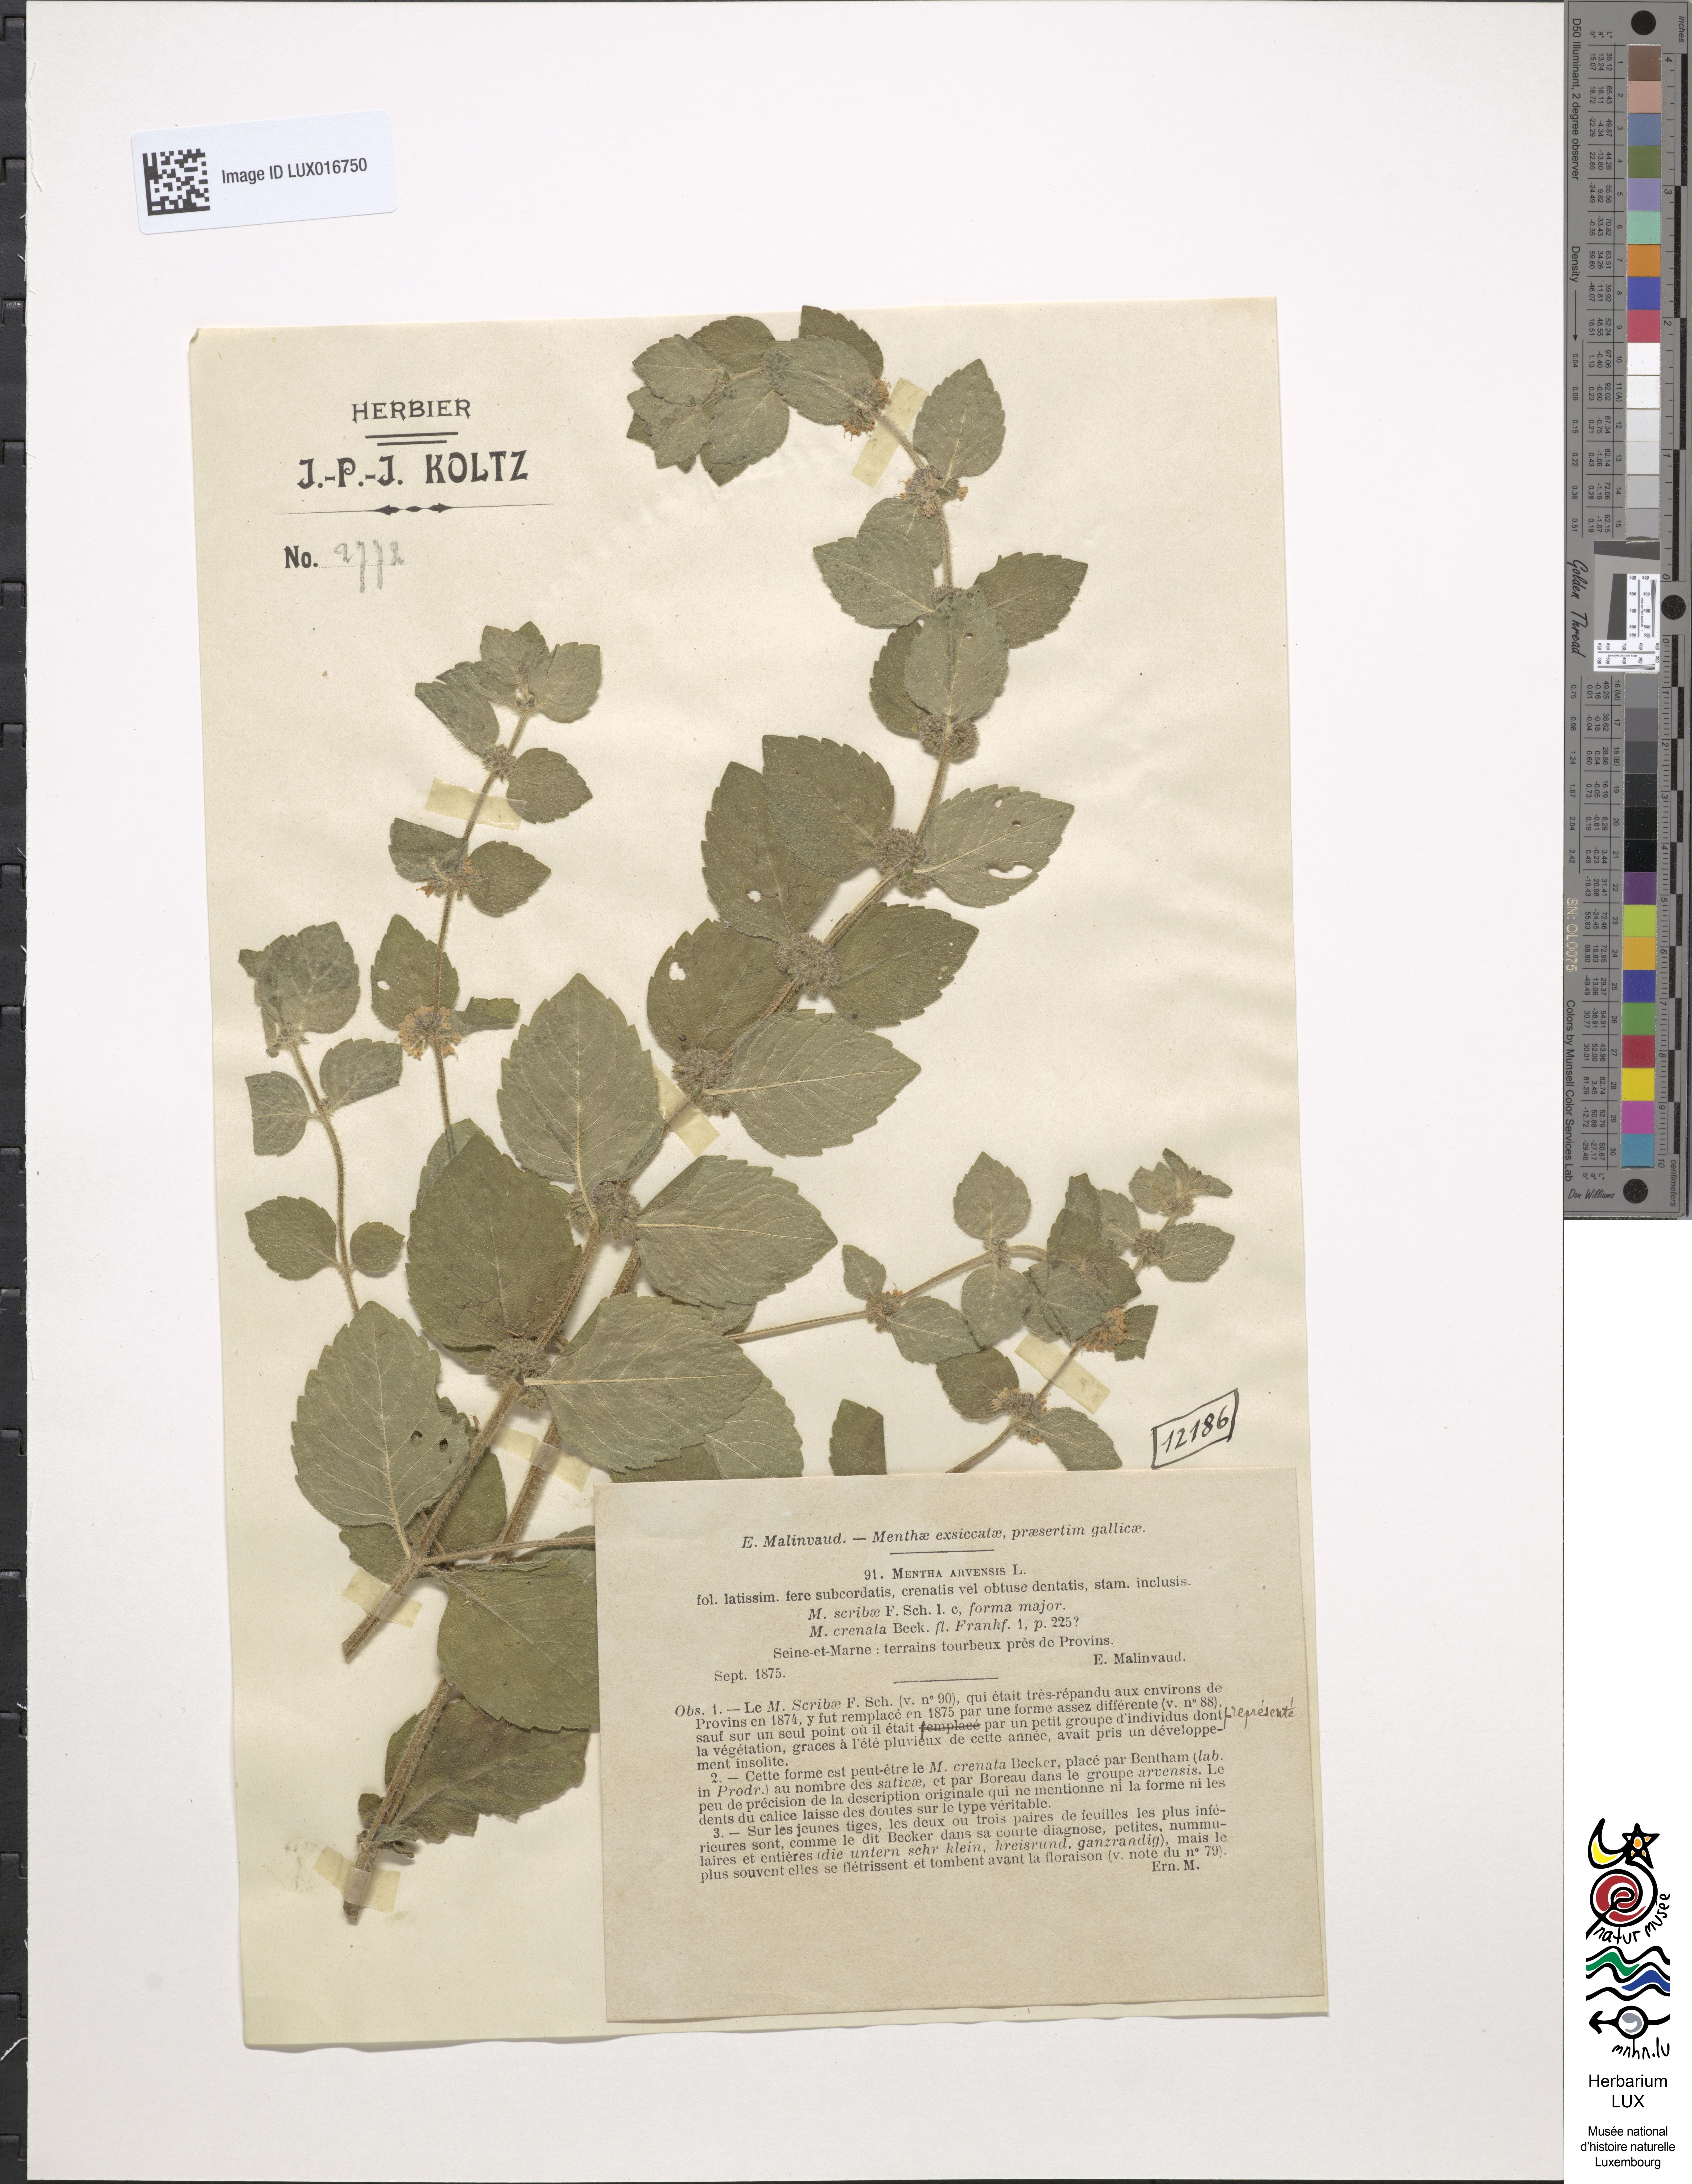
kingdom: Plantae
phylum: Tracheophyta
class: Magnoliopsida
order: Lamiales
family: Lamiaceae
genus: Mentha
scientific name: Mentha arvensis
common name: Corn mint
